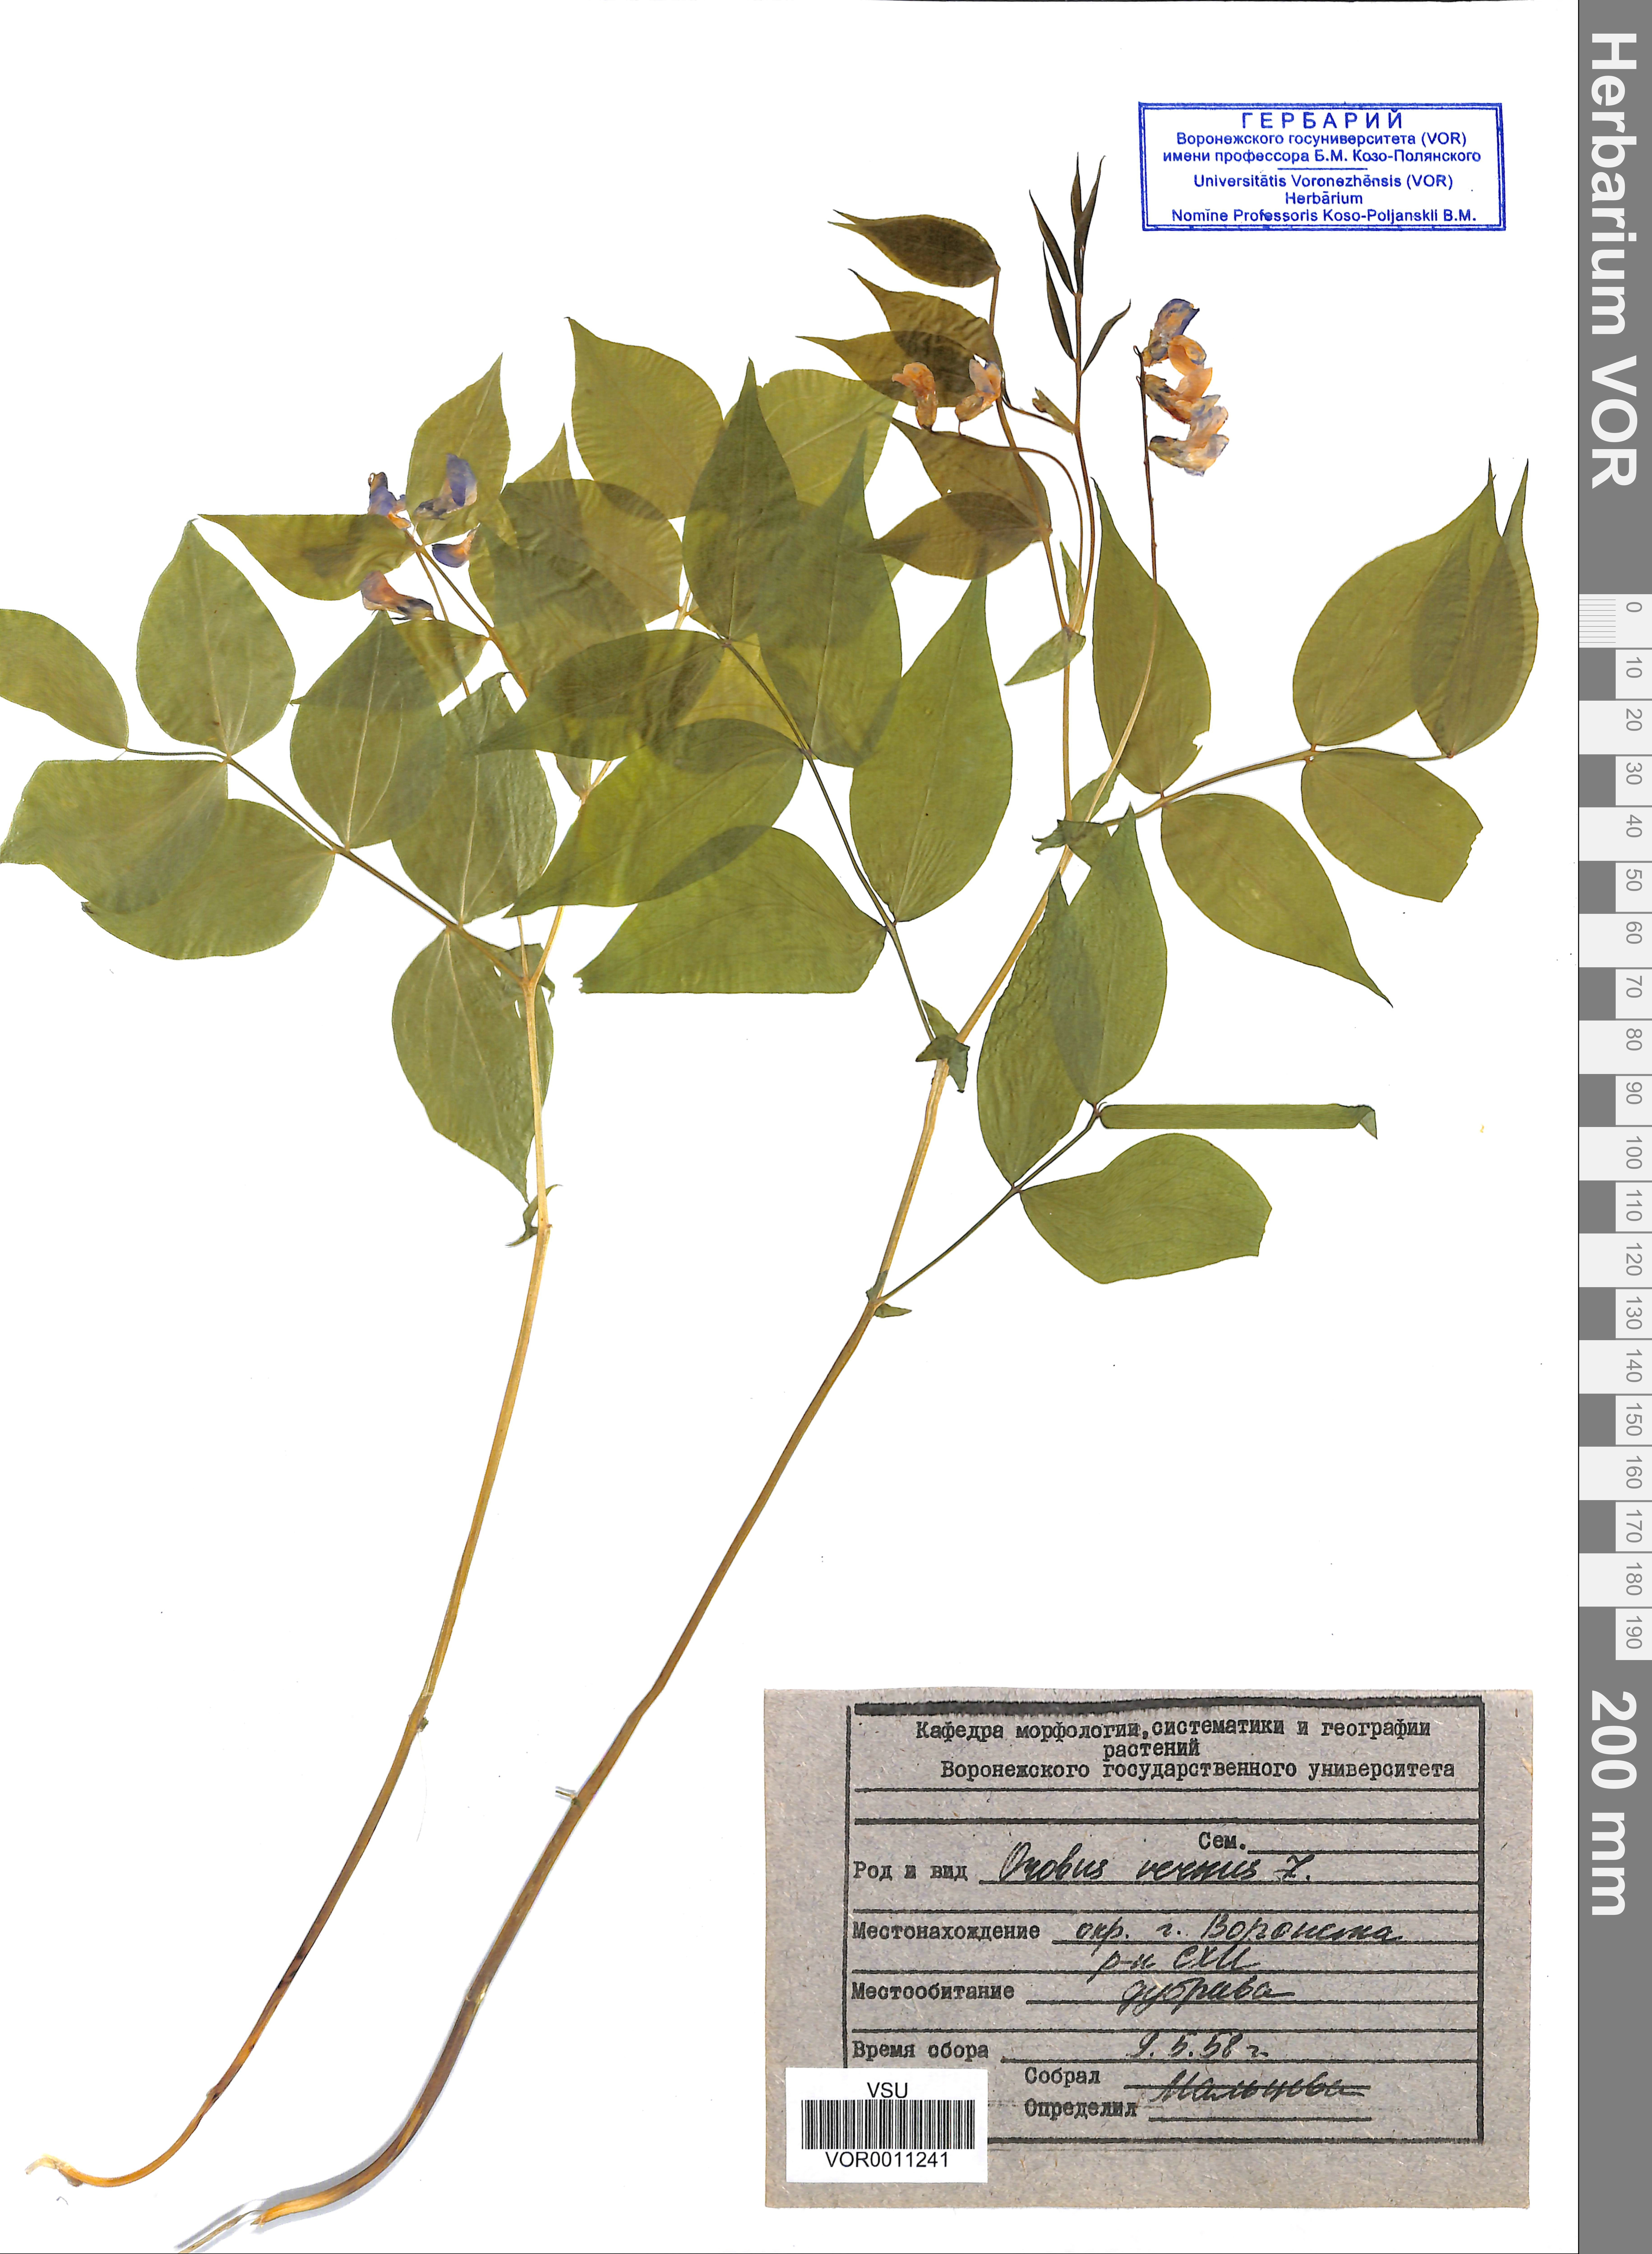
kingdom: Plantae
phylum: Tracheophyta
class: Magnoliopsida
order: Fabales
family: Fabaceae
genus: Lathyrus
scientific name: Lathyrus vernus
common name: Spring pea
